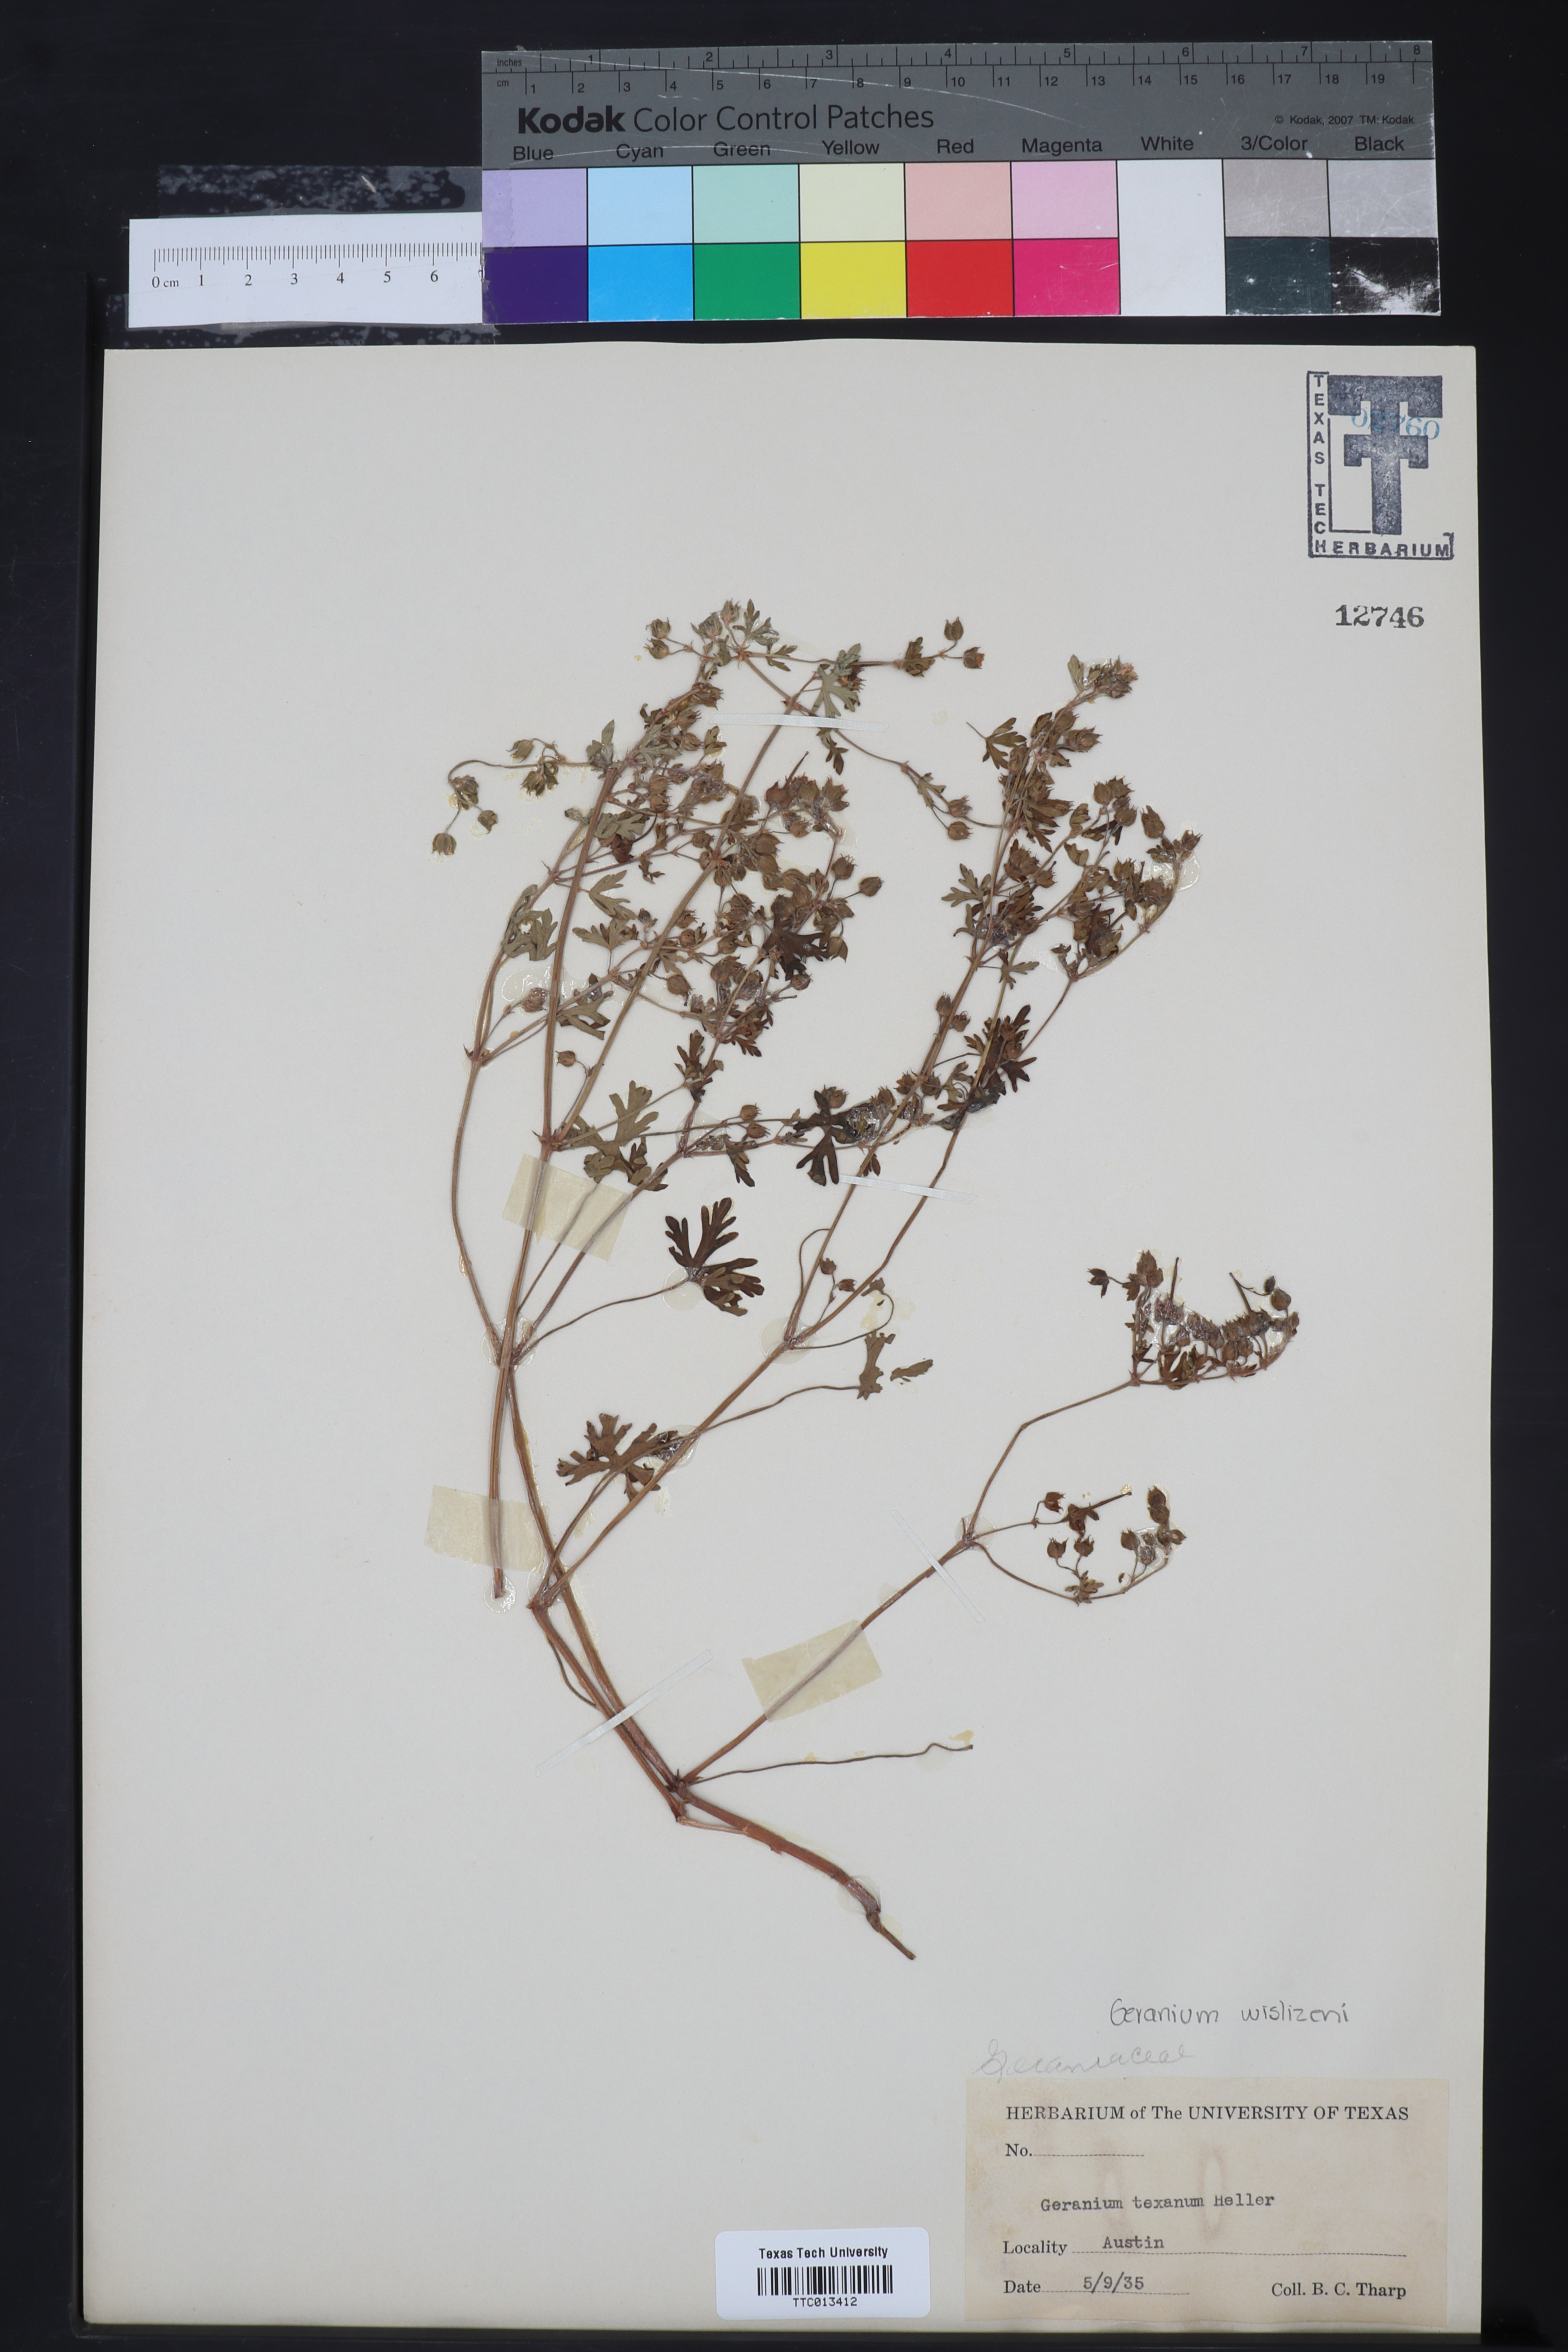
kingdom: Plantae
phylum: Tracheophyta
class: Magnoliopsida
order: Geraniales
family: Geraniaceae
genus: Geranium
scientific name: Geranium texanum
